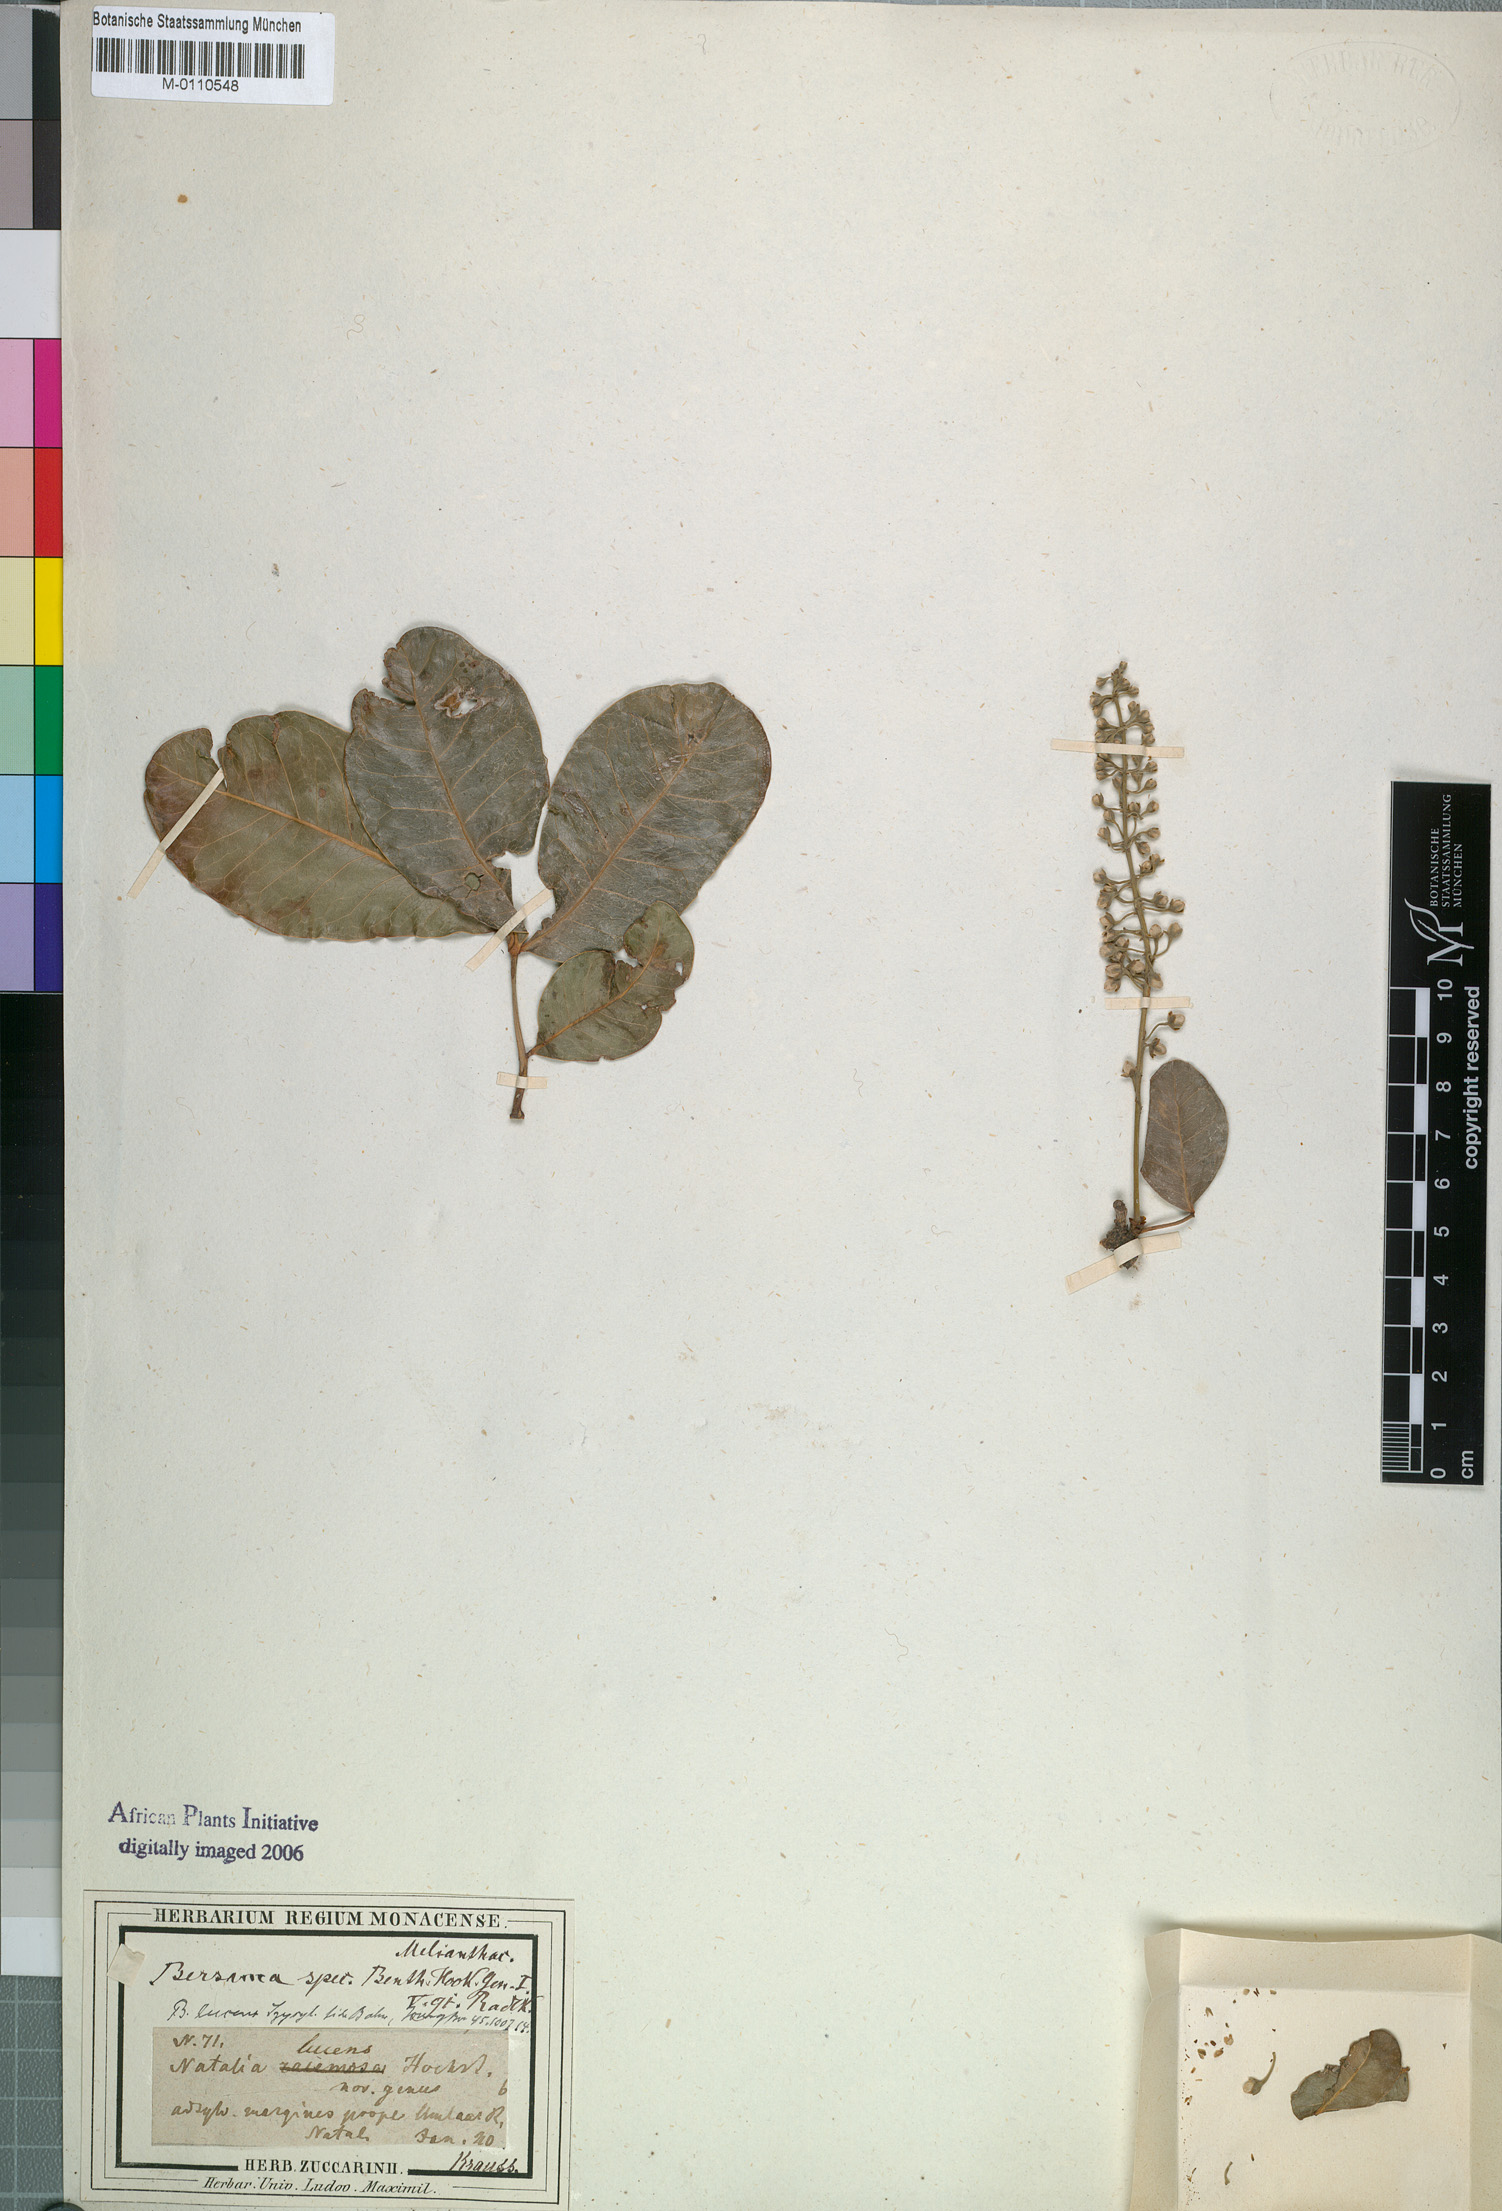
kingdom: Plantae
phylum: Tracheophyta
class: Magnoliopsida
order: Geraniales
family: Melianthaceae
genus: Bersama
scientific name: Bersama lucens
